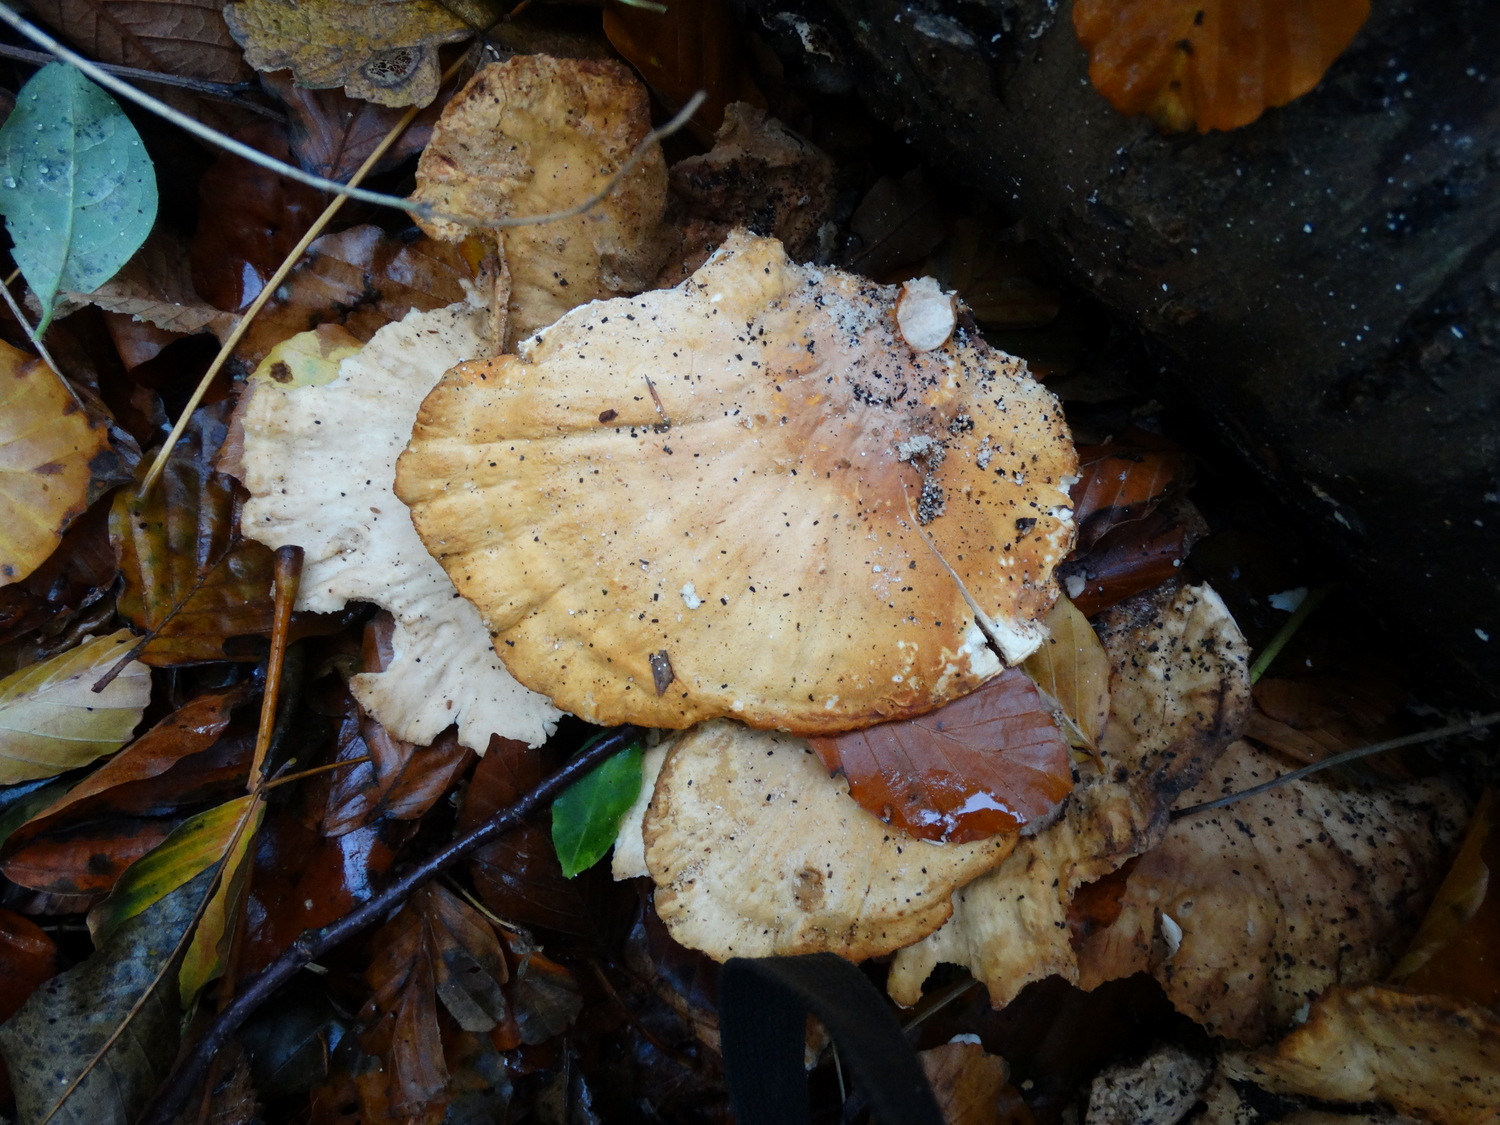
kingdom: Fungi
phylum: Basidiomycota
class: Agaricomycetes
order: Polyporales
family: Laetiporaceae
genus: Laetiporus
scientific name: Laetiporus sulphureus
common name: svovlporesvamp
